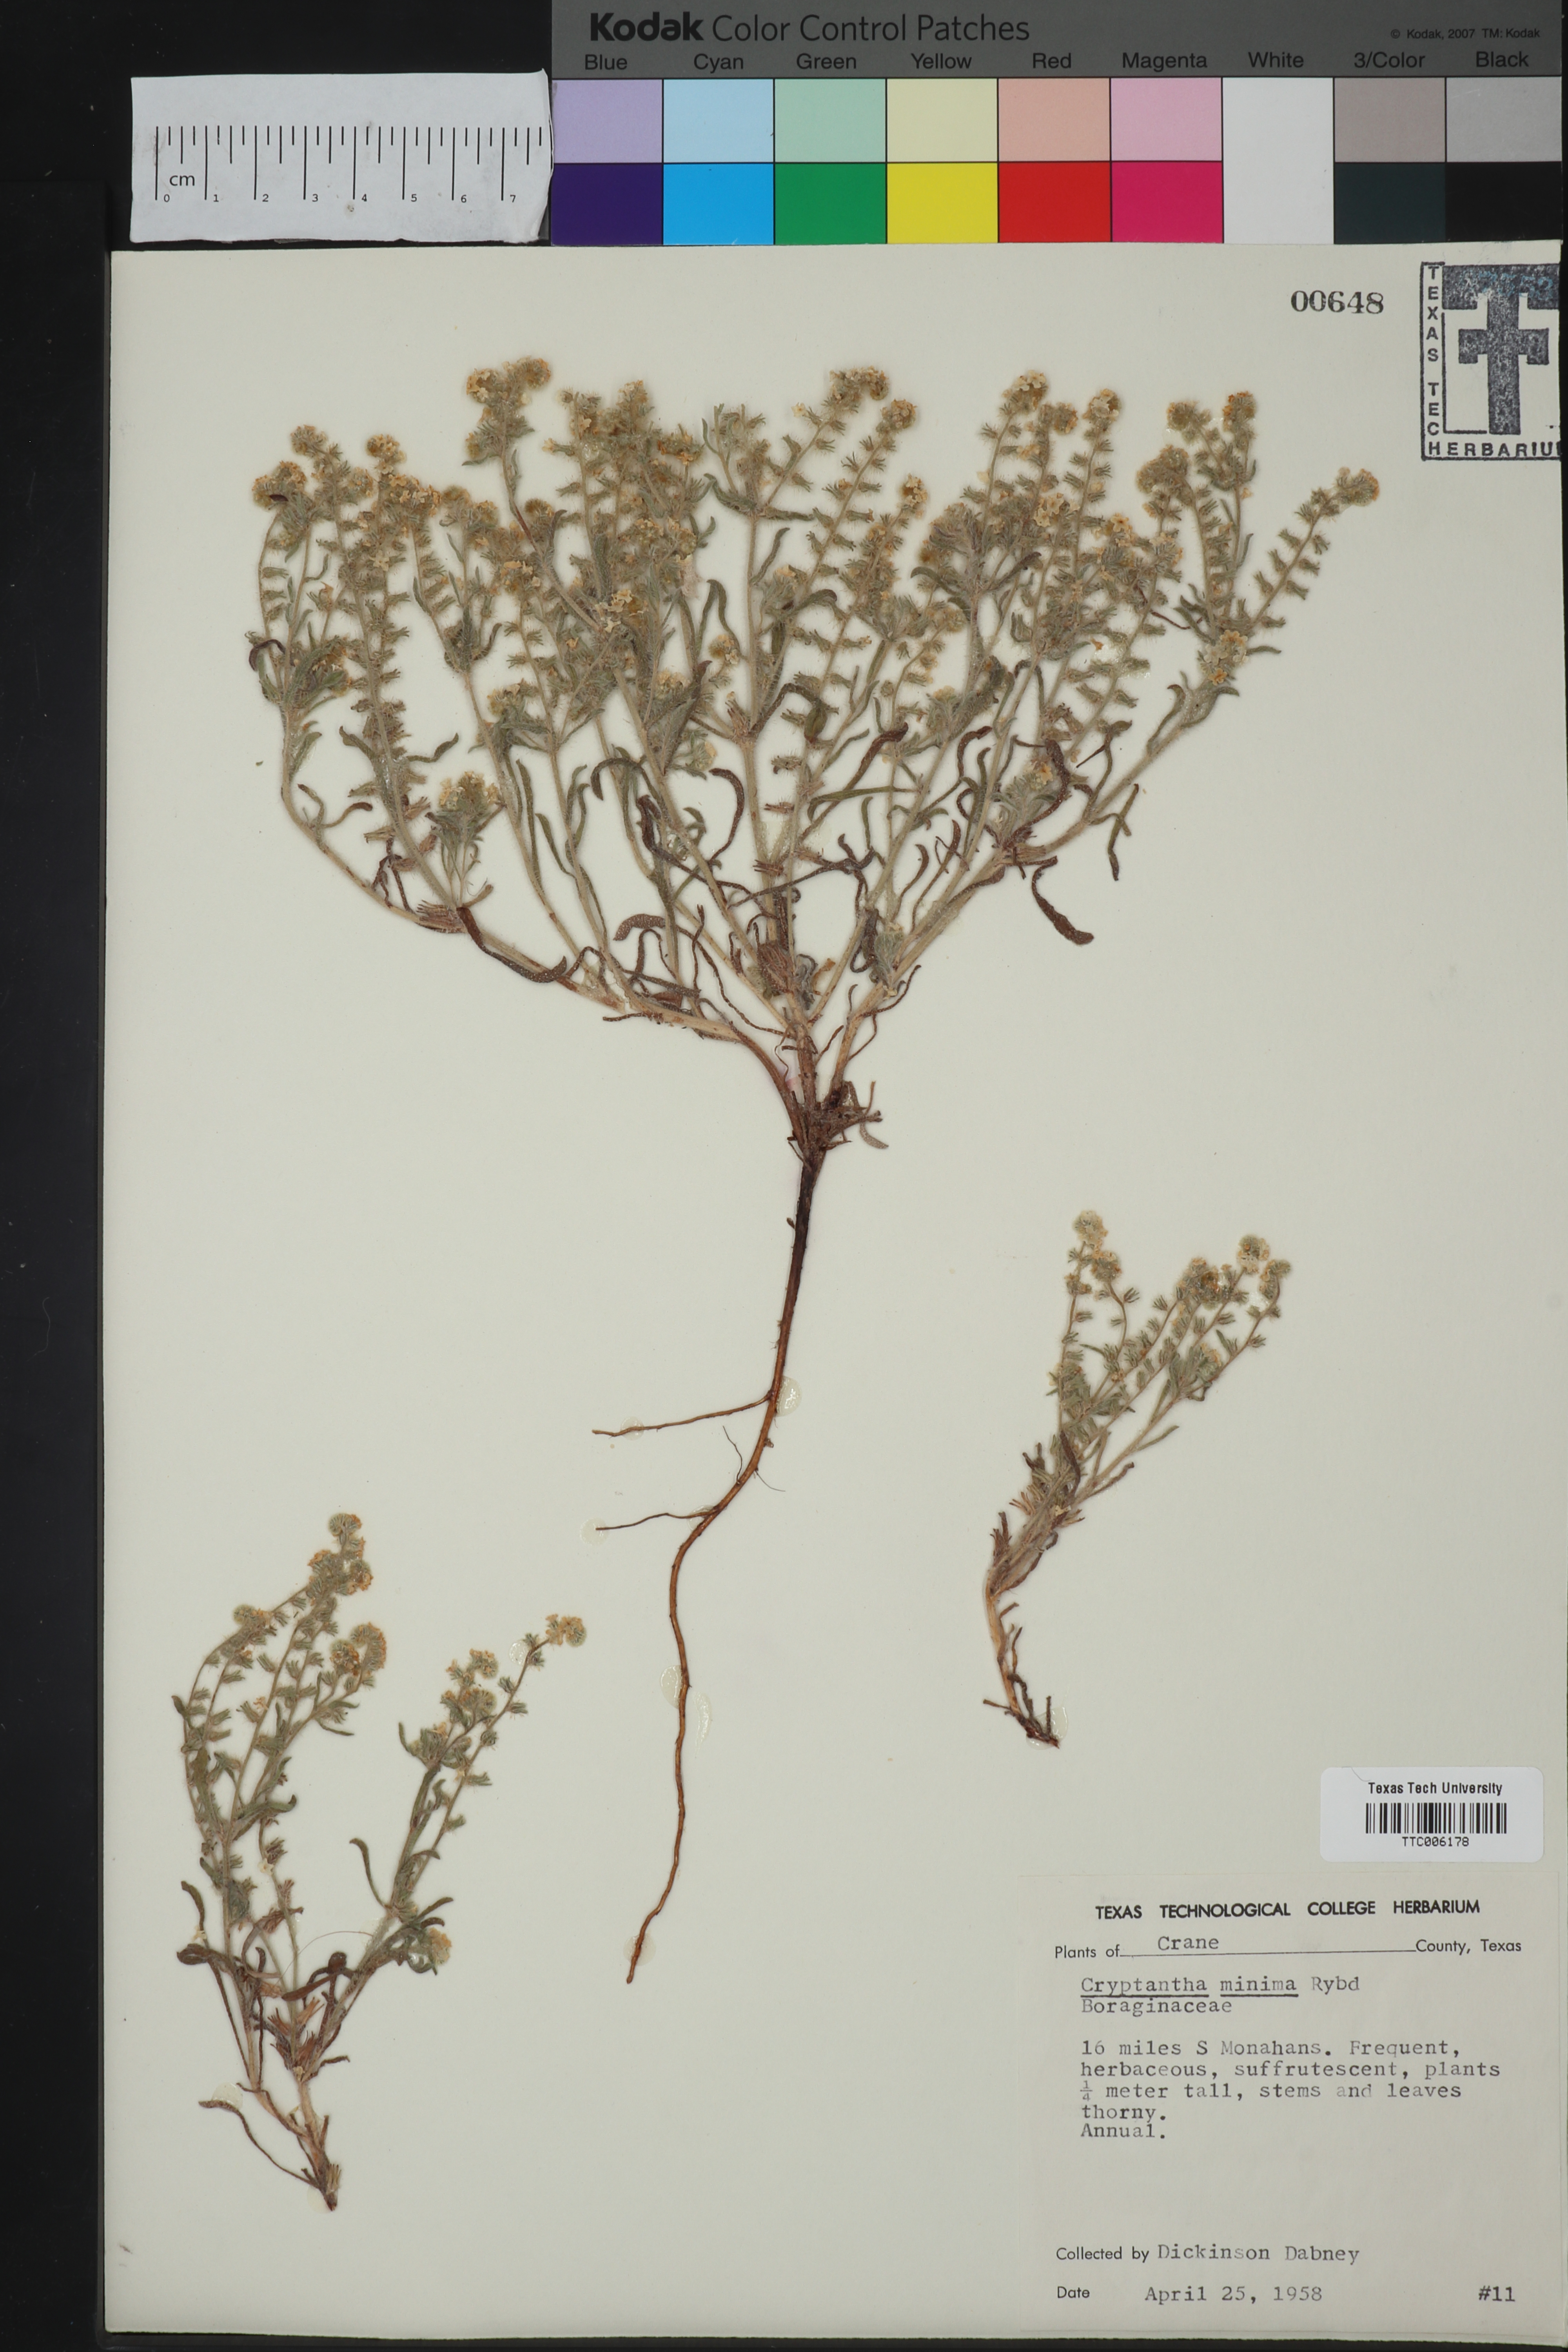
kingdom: Plantae
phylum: Tracheophyta
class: Magnoliopsida
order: Boraginales
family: Boraginaceae
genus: Cryptantha
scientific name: Cryptantha minima
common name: Little cat's-eye
